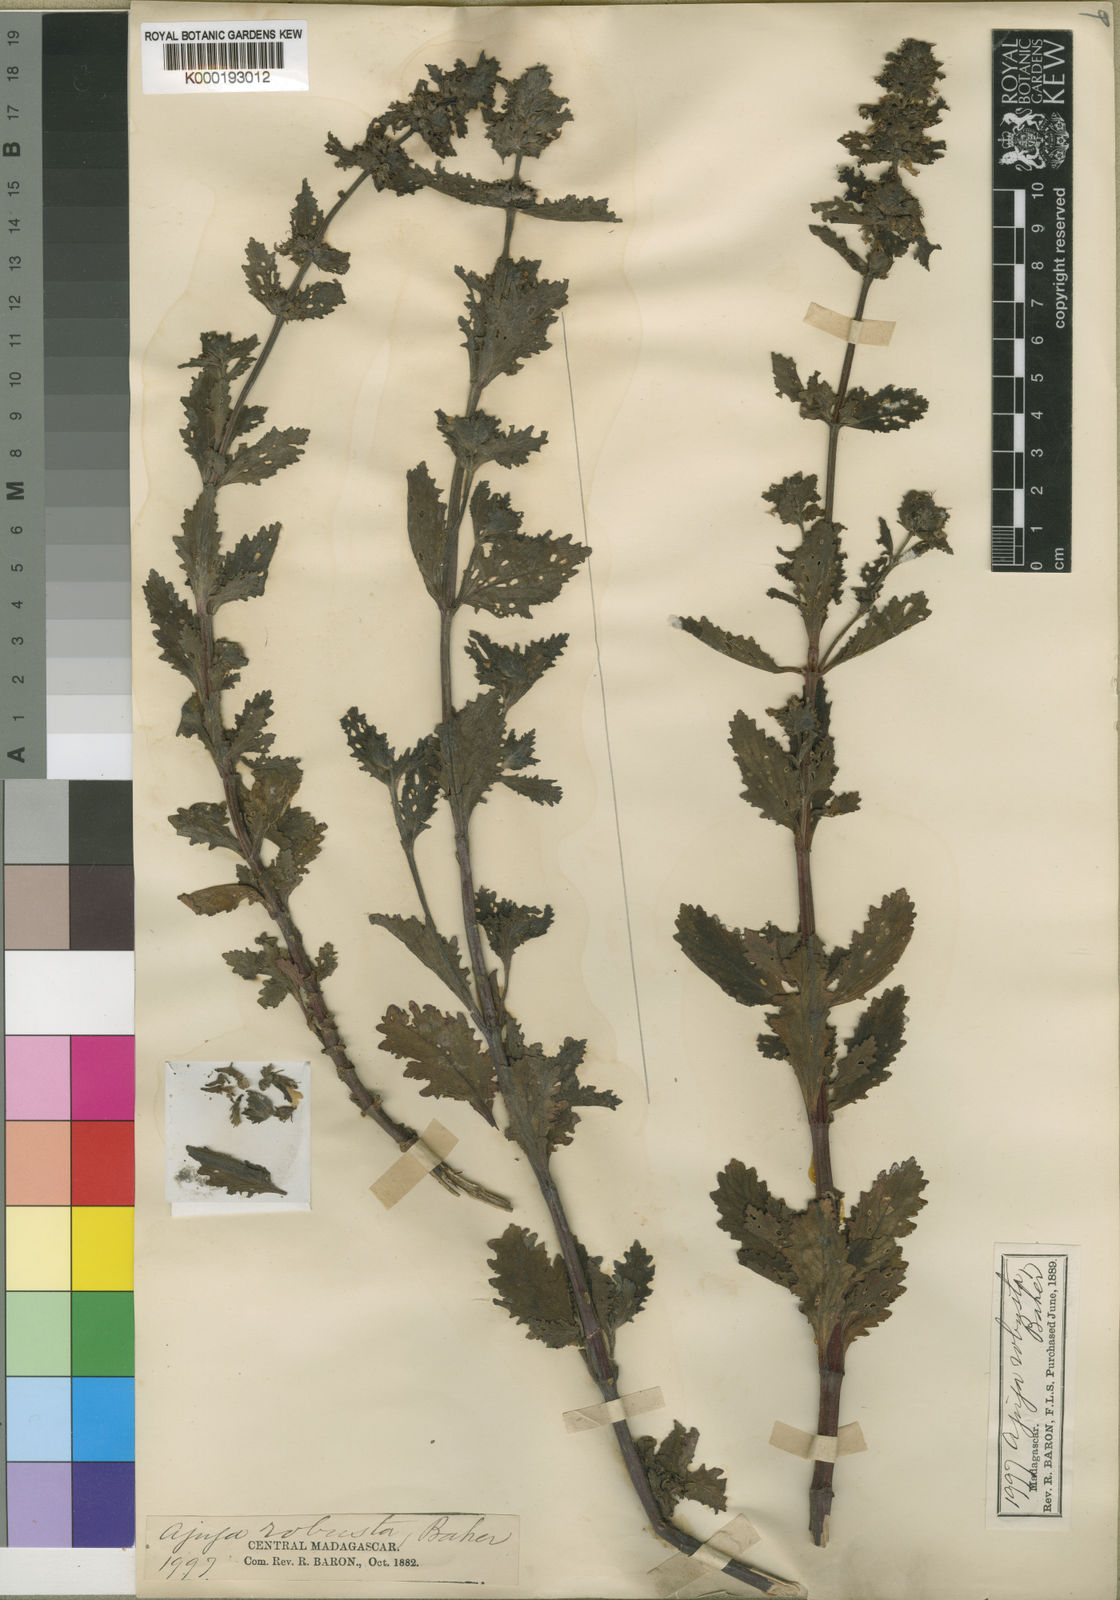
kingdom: Plantae
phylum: Tracheophyta
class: Magnoliopsida
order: Lamiales
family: Lamiaceae
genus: Ajuga
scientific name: Ajuga robusta
